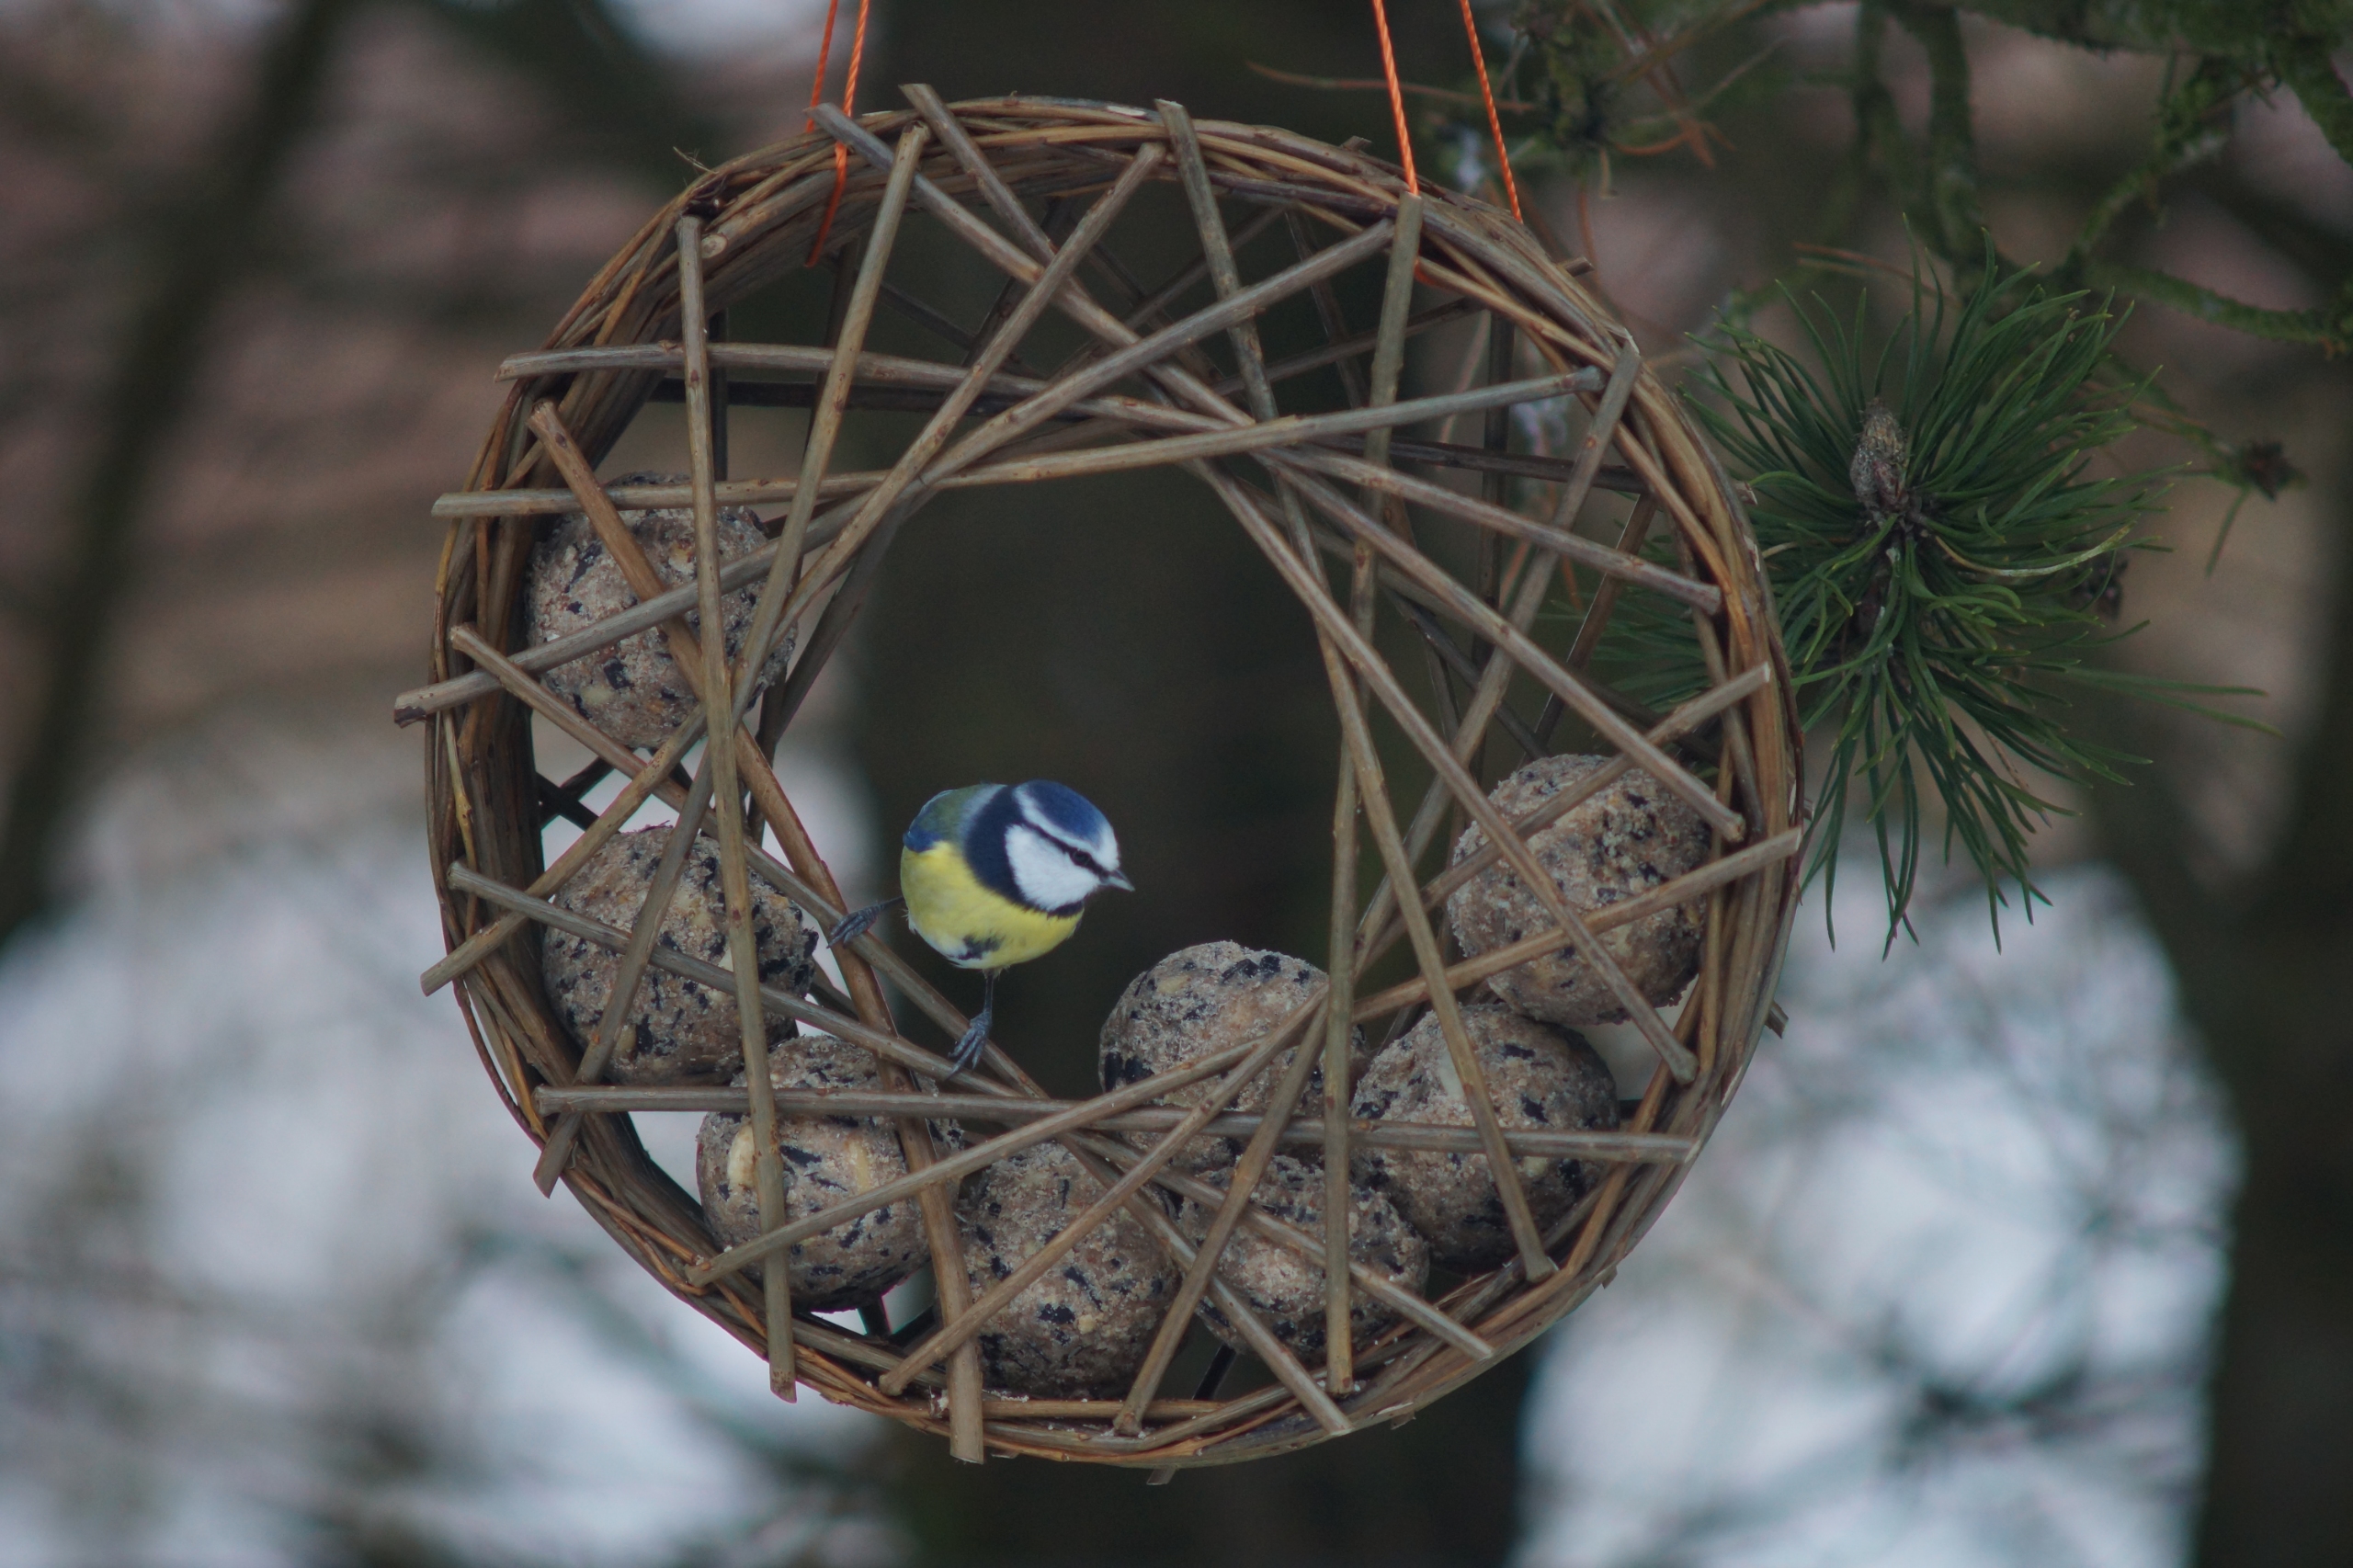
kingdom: Animalia
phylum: Chordata
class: Aves
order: Passeriformes
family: Paridae
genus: Cyanistes
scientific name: Cyanistes caeruleus
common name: Blåmejse
